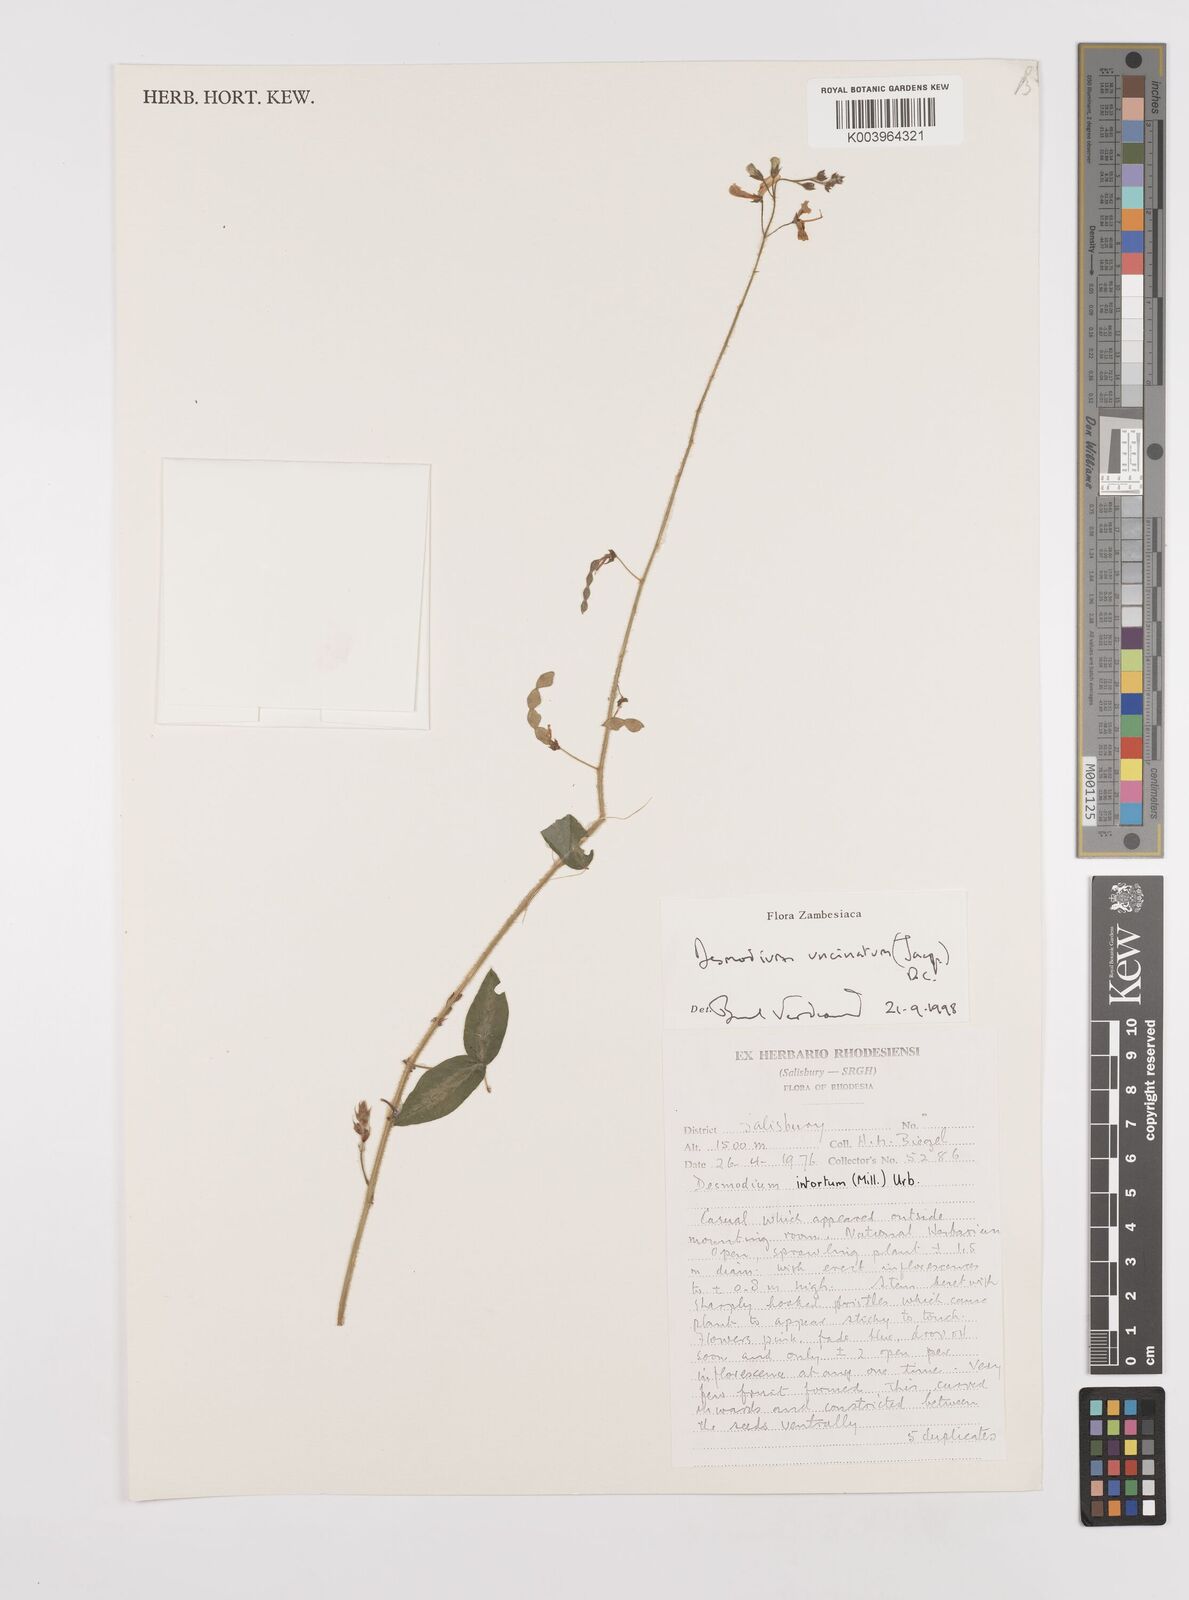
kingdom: Plantae
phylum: Tracheophyta
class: Magnoliopsida
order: Fabales
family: Fabaceae
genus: Desmodium
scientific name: Desmodium uncinatum
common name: Silverleaf desmodium
